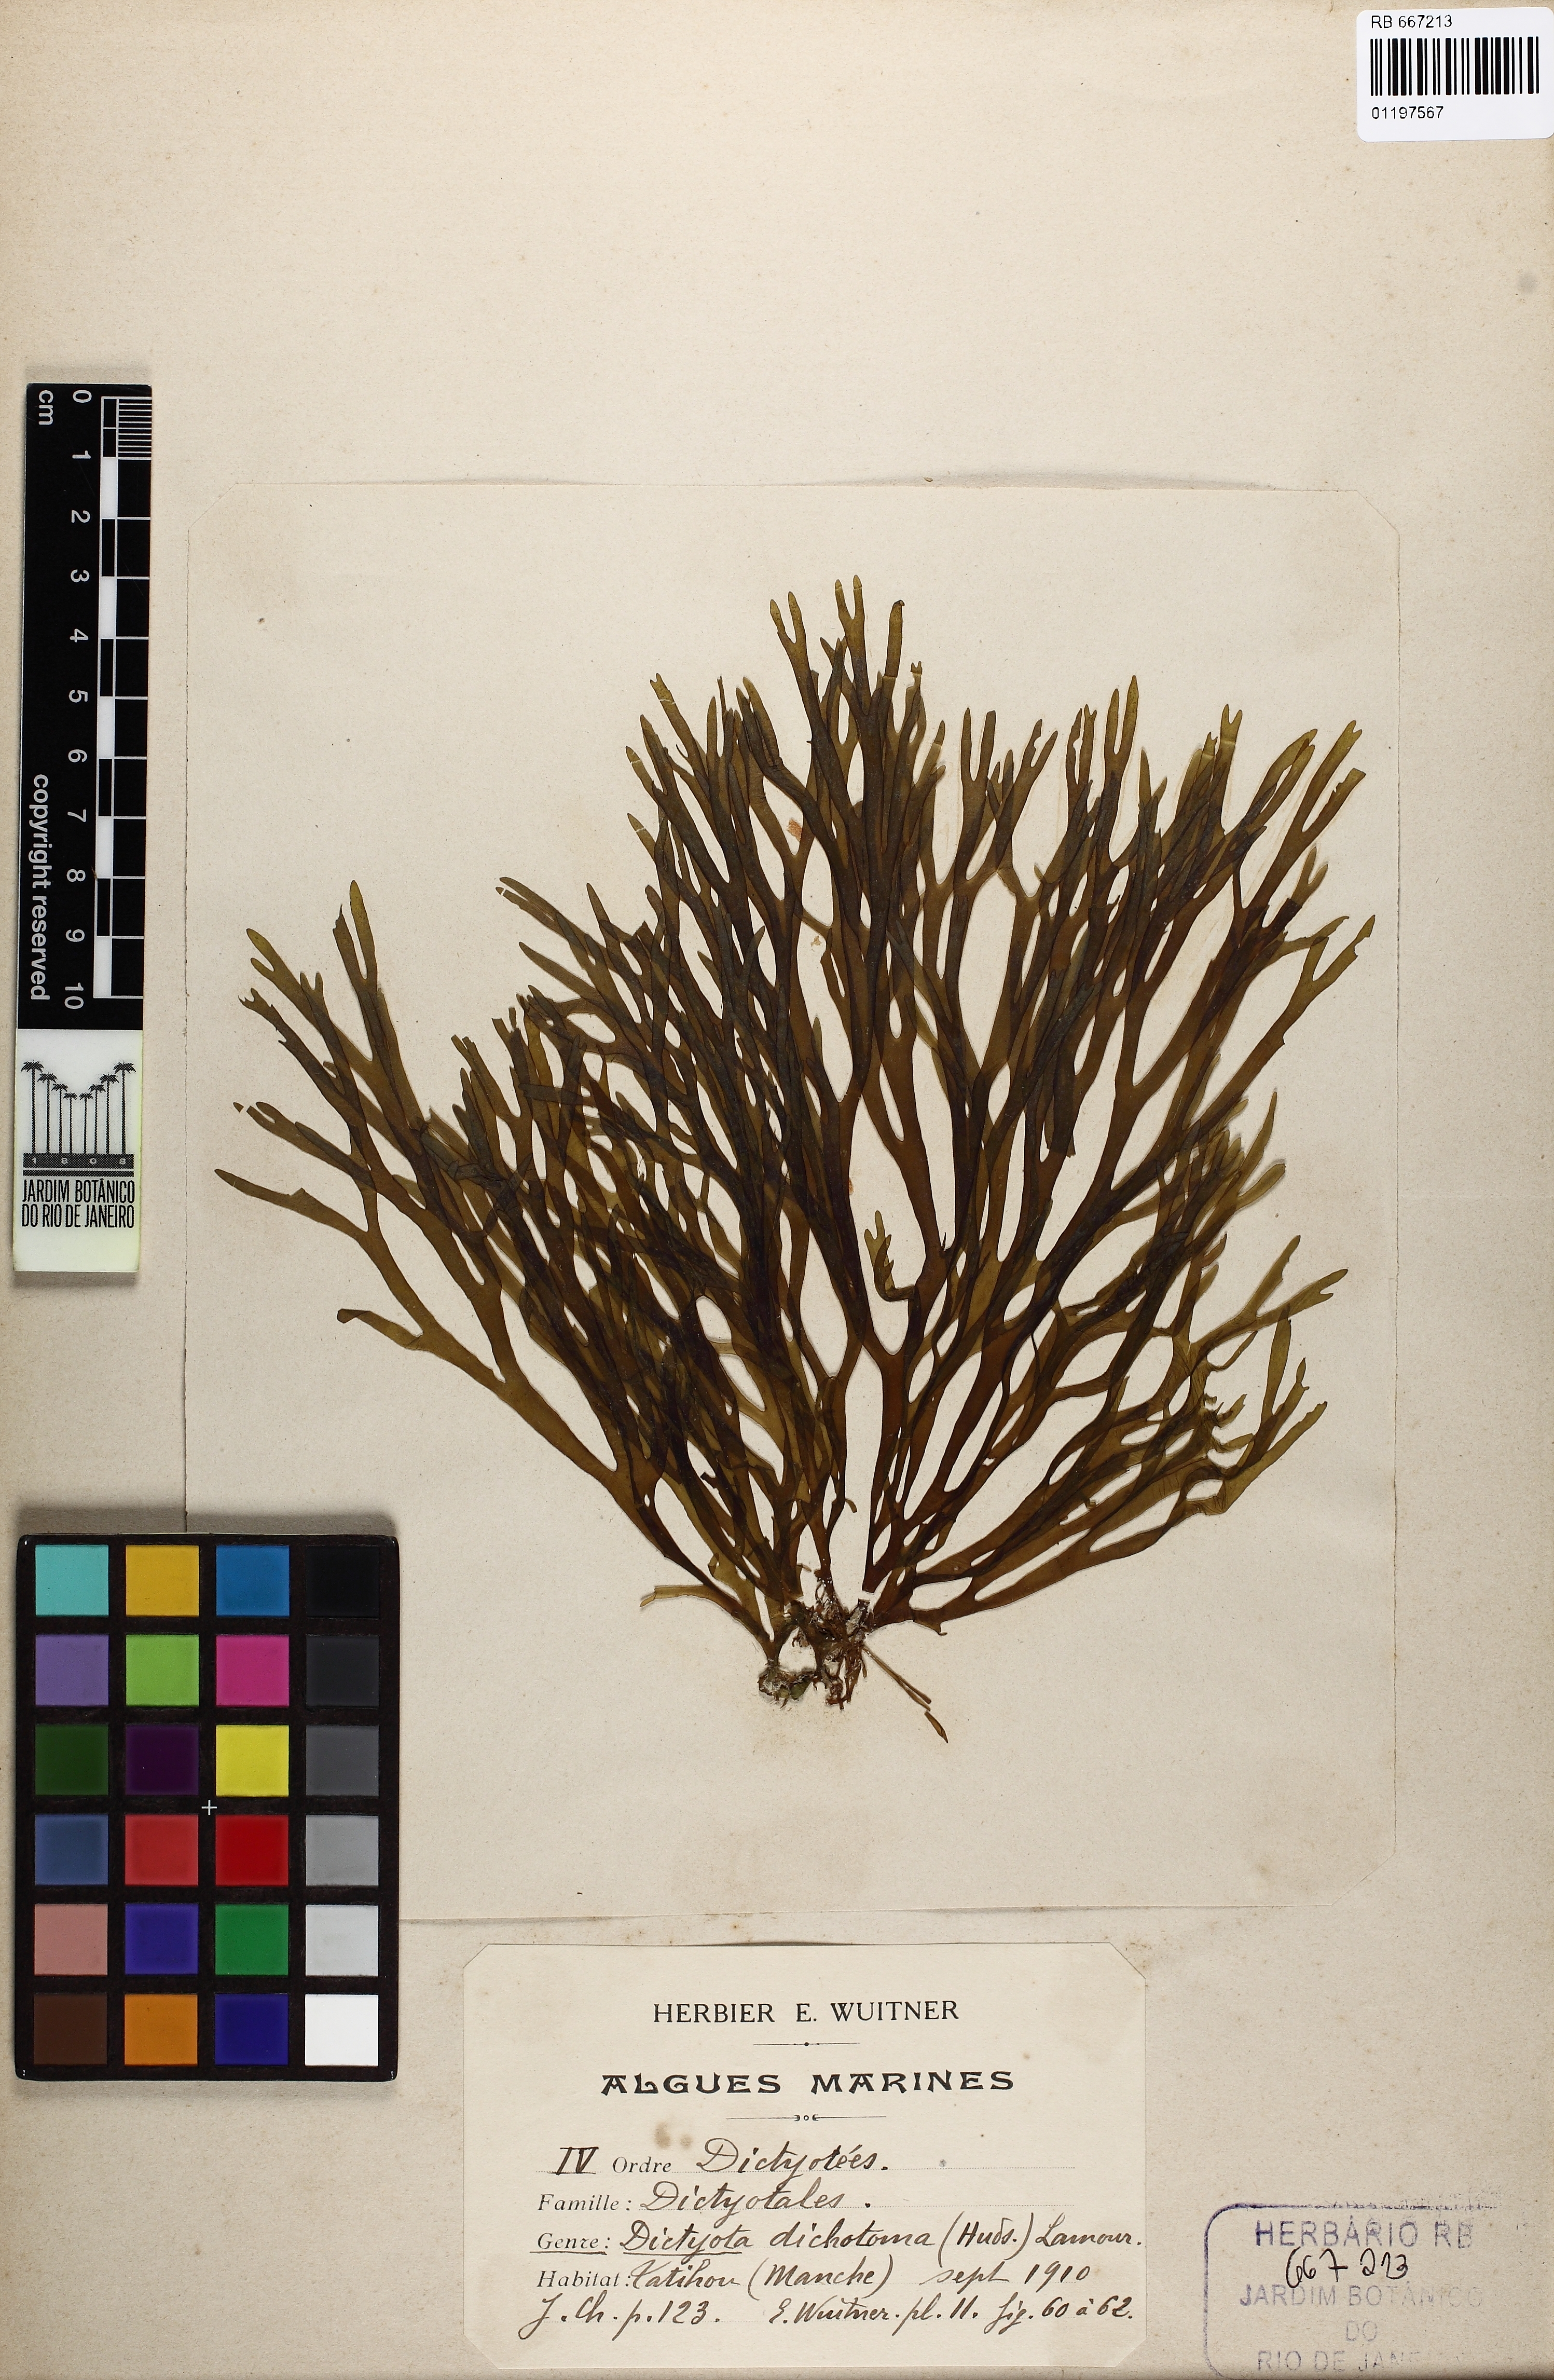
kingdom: Chromista
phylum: Ochrophyta
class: Phaeophyceae
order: Dictyotales
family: Dictyotaceae
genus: Dictyota
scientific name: Dictyota dichotoma
